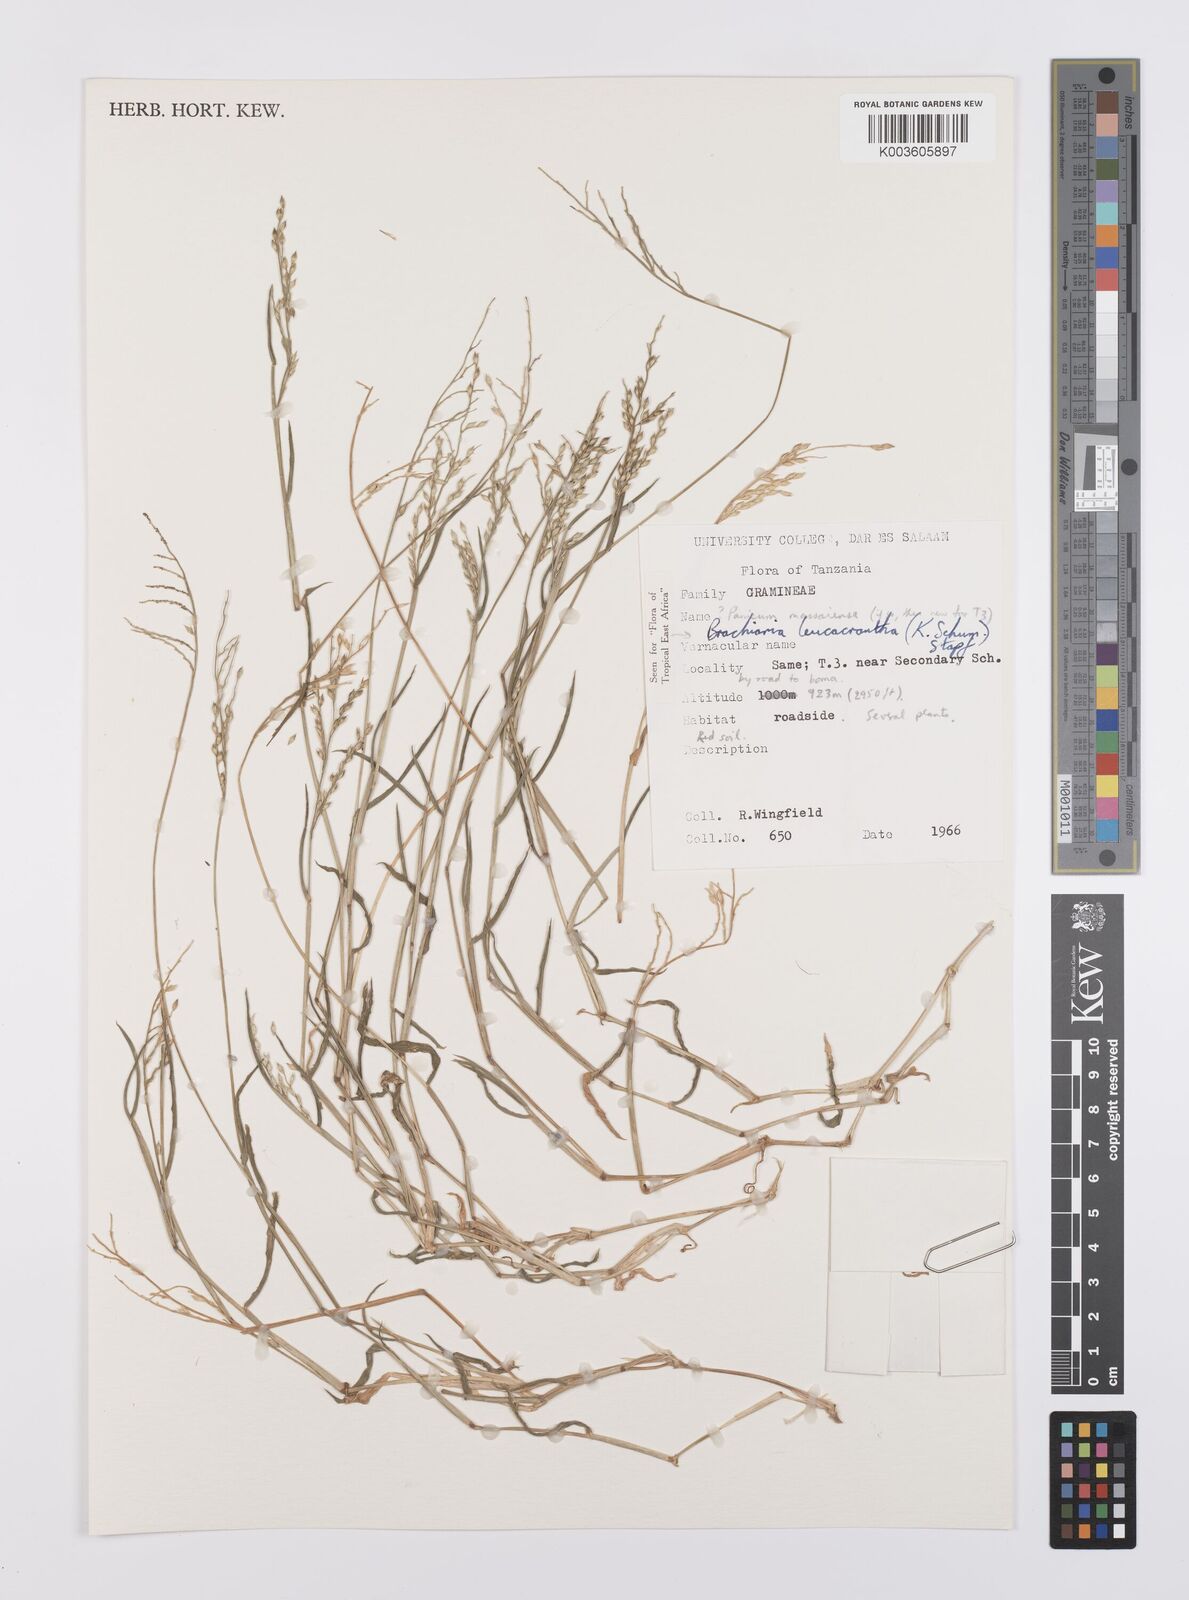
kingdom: Plantae
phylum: Tracheophyta
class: Liliopsida
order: Poales
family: Poaceae
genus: Urochloa
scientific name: Urochloa xantholeuca
